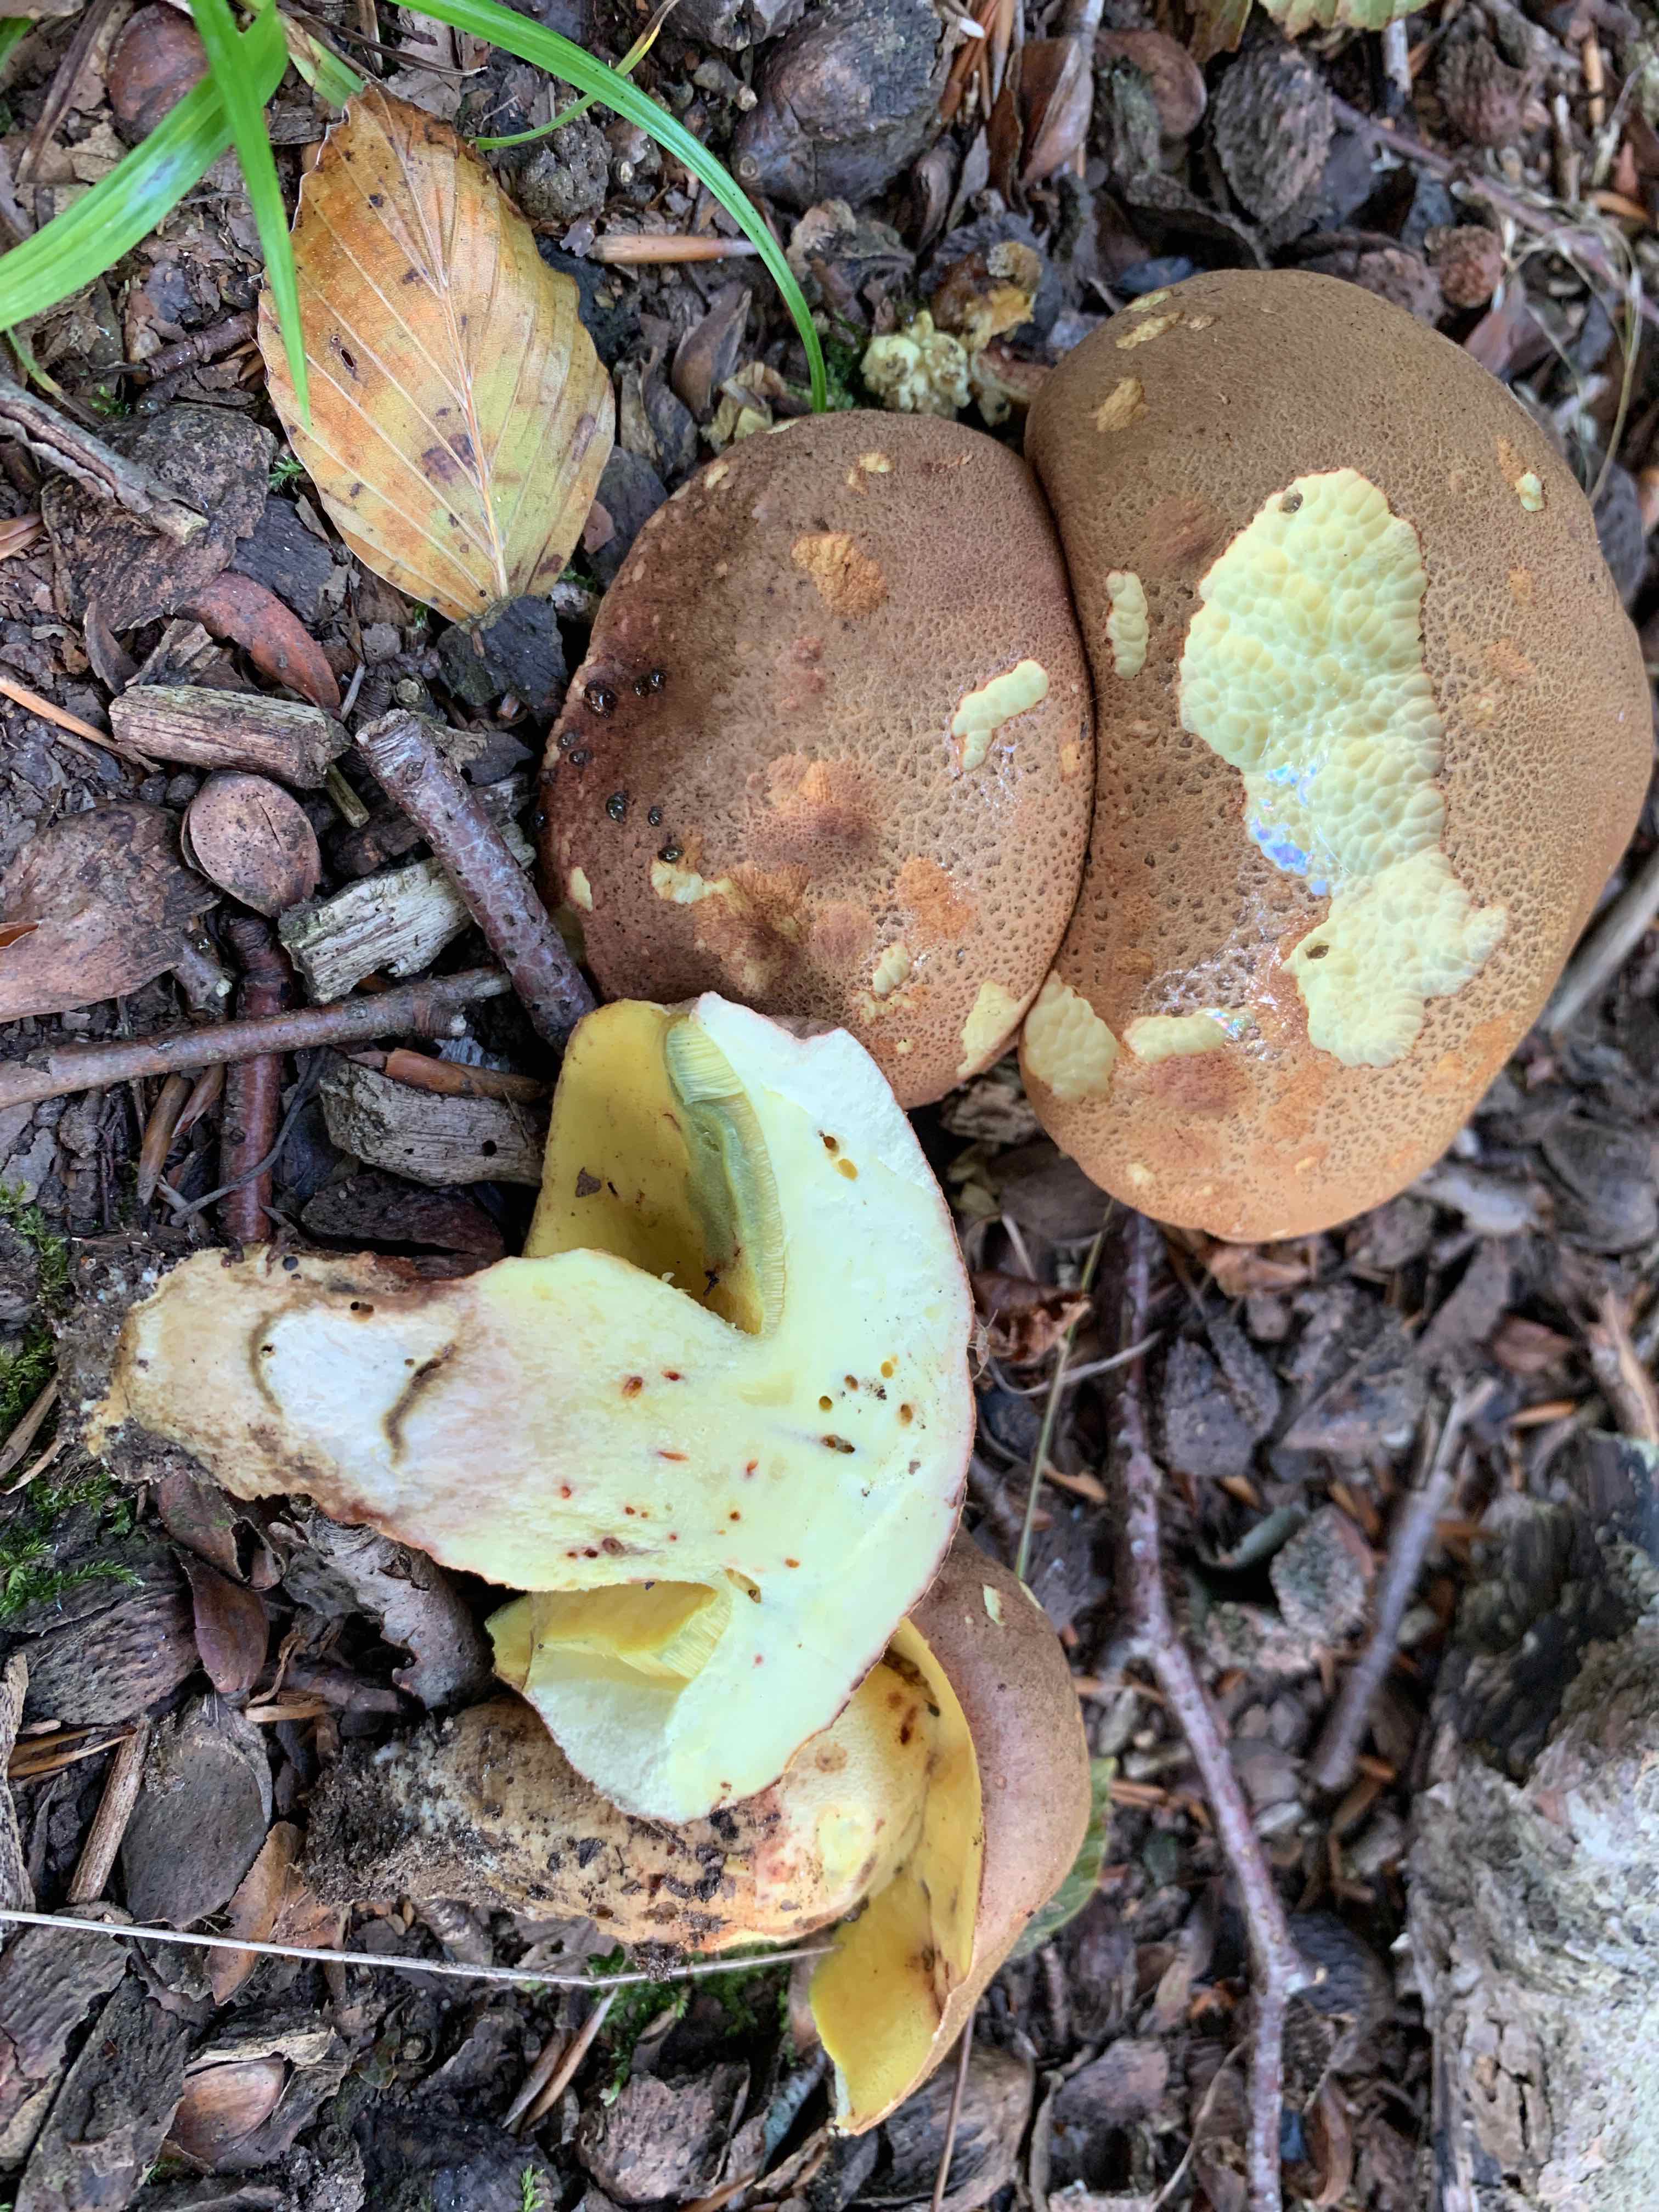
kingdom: Fungi
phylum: Basidiomycota
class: Agaricomycetes
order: Boletales
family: Boletaceae
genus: Butyriboletus
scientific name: Butyriboletus appendiculatus
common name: tenstokket rørhat
